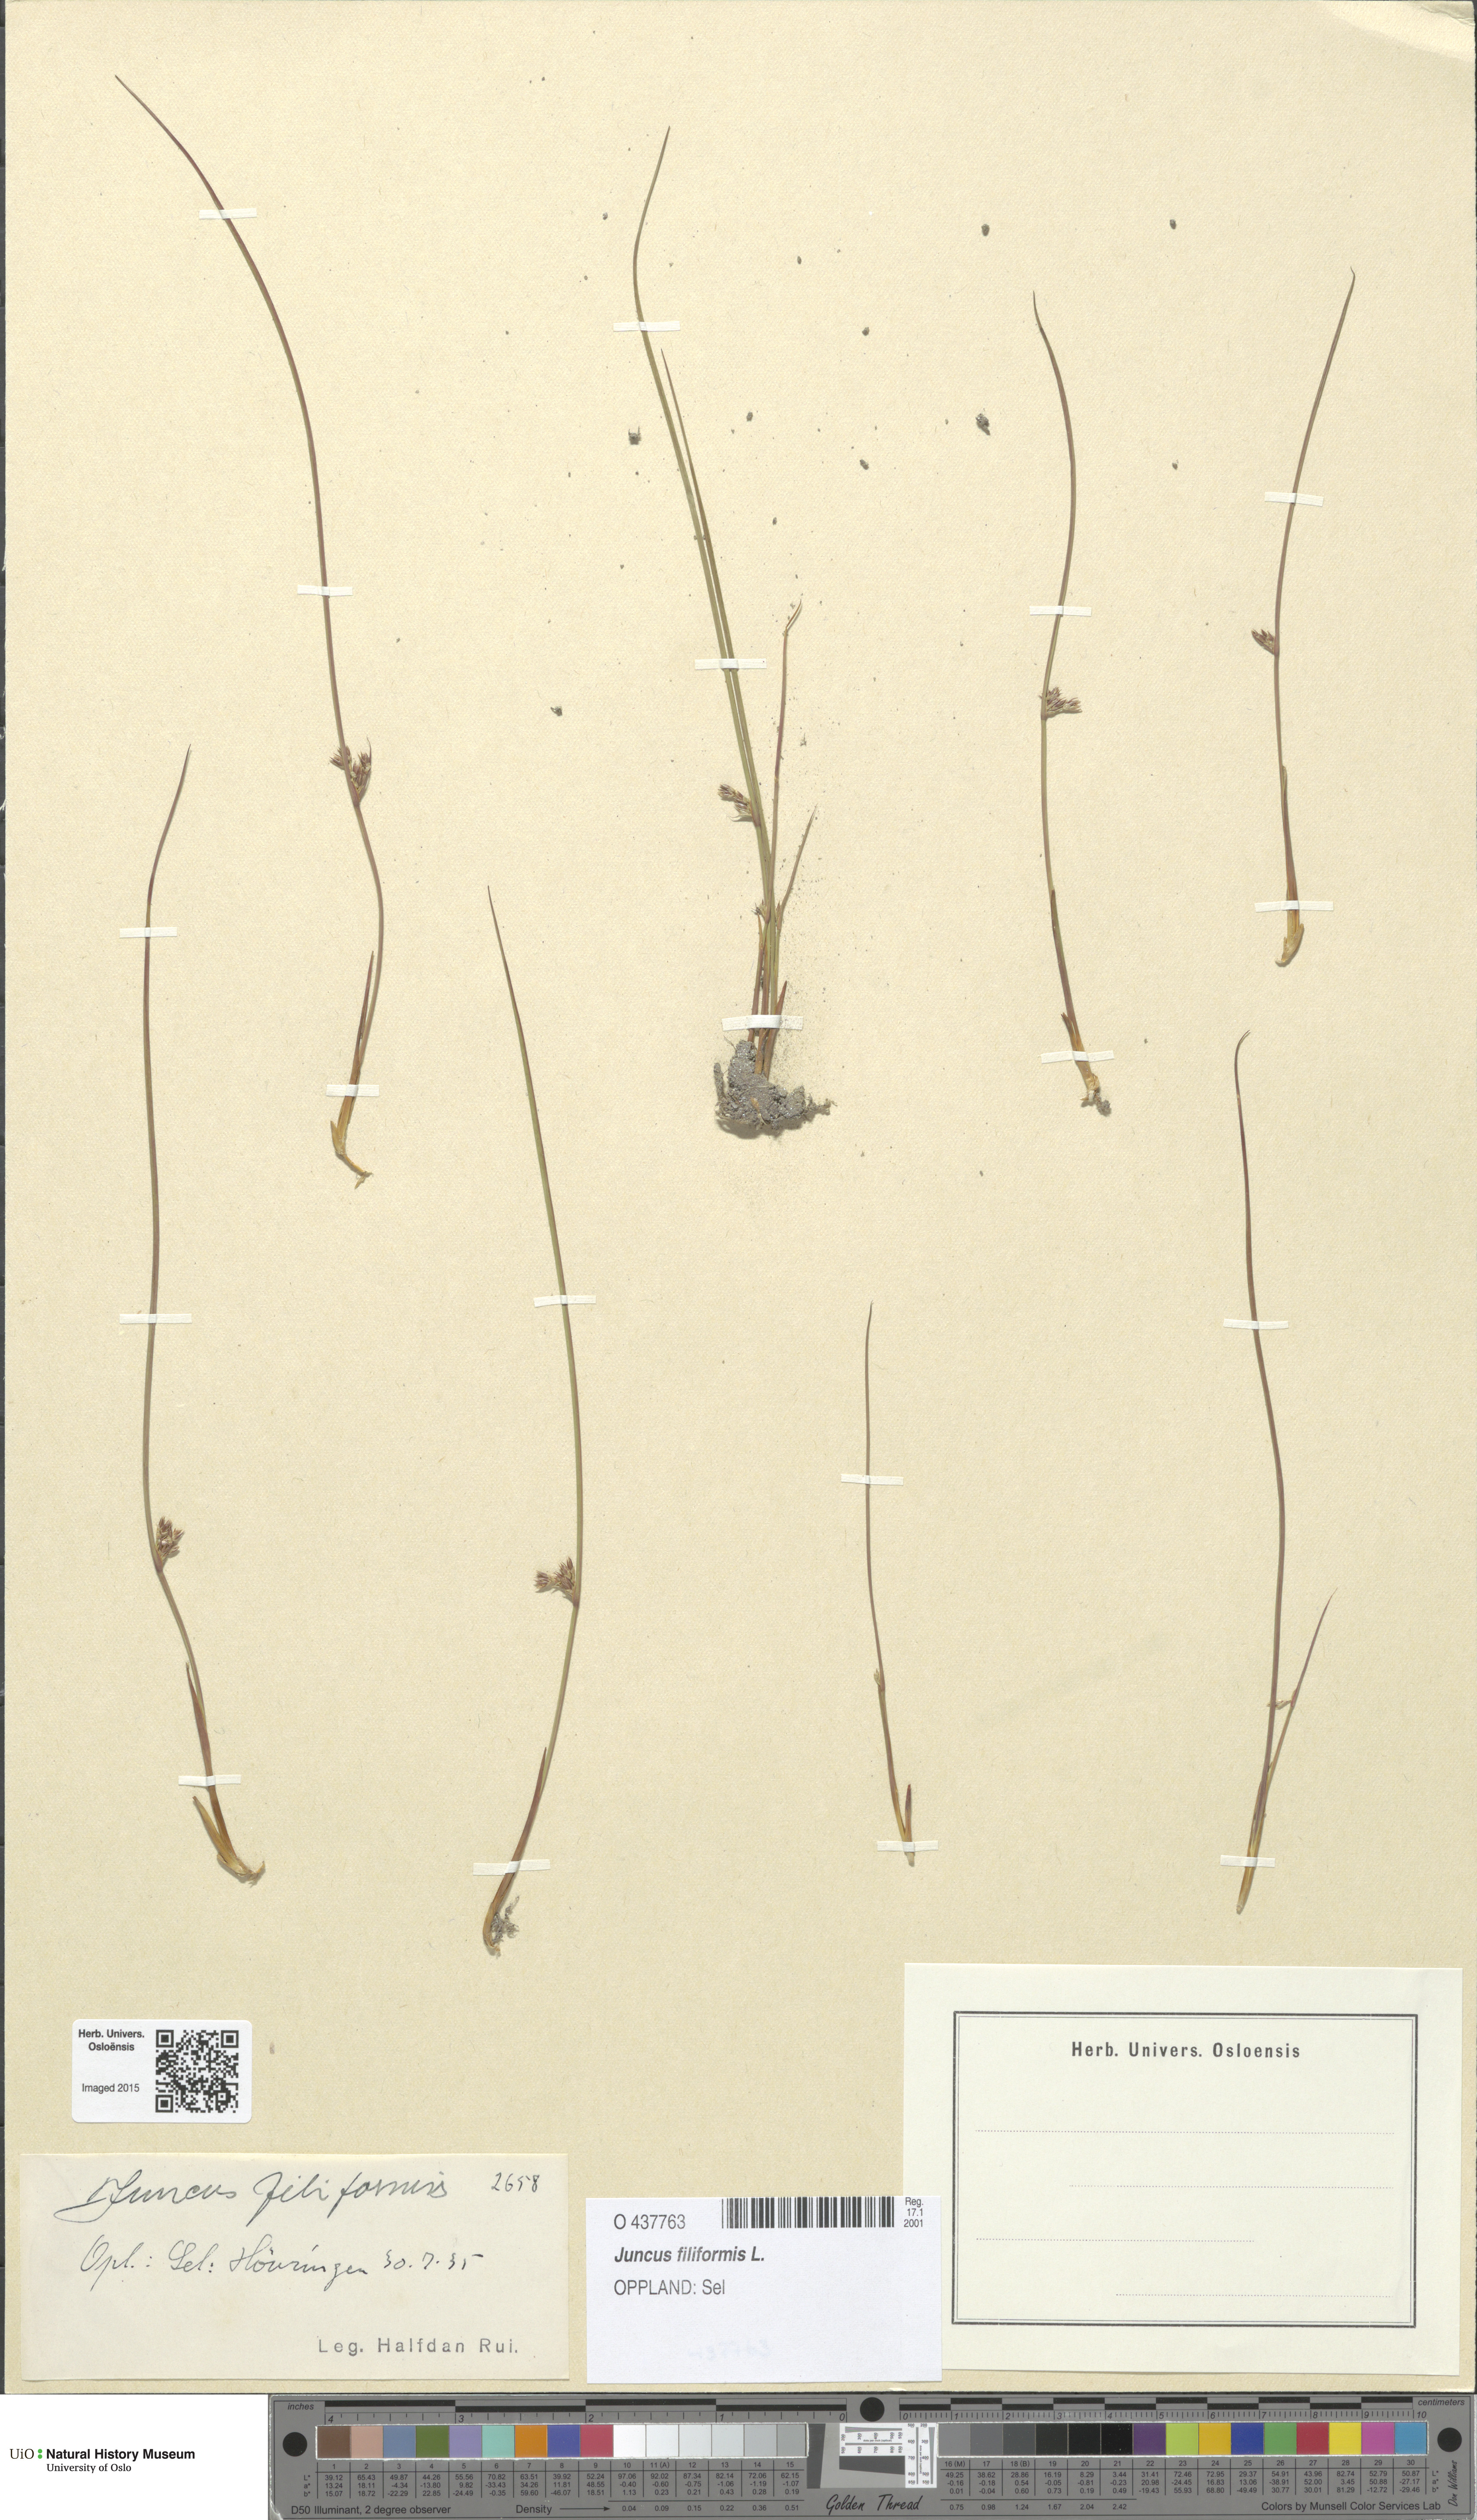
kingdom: Plantae
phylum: Tracheophyta
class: Liliopsida
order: Poales
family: Juncaceae
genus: Juncus
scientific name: Juncus filiformis
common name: Thread rush
